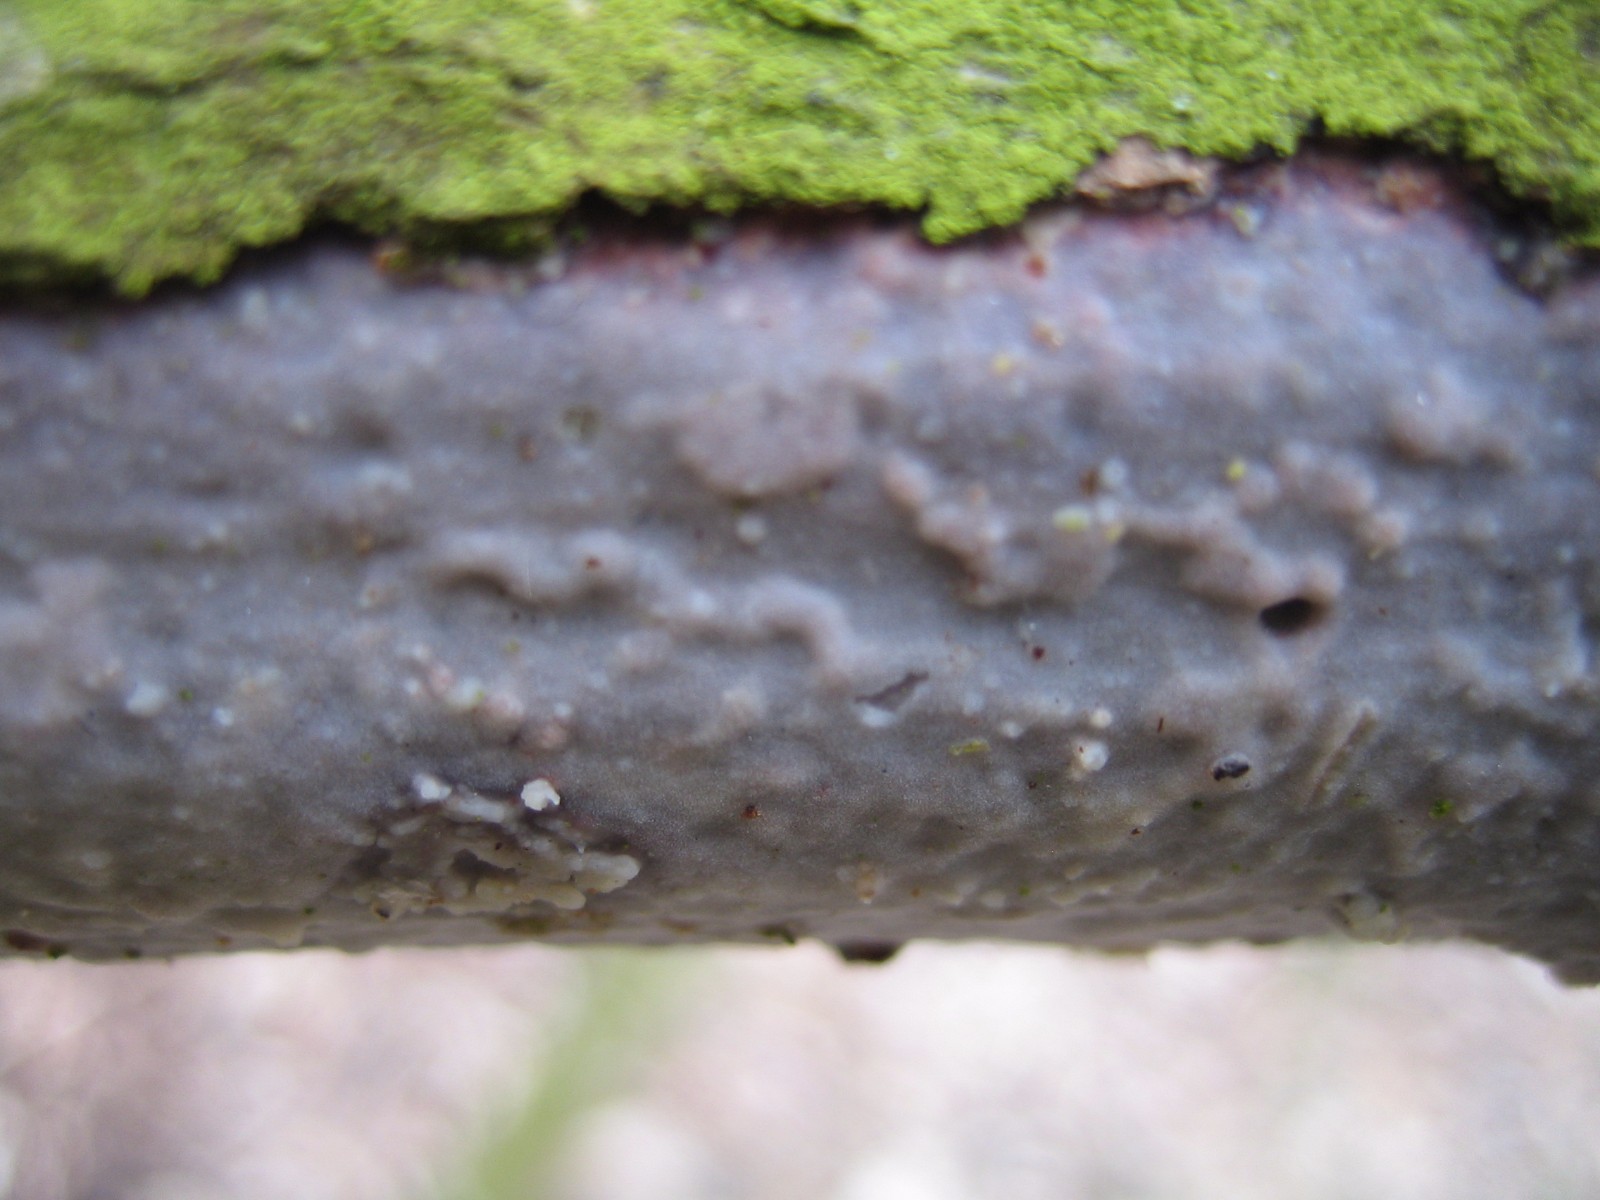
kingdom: Fungi
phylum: Basidiomycota
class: Agaricomycetes
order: Russulales
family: Peniophoraceae
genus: Peniophora
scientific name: Peniophora quercina
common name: ege-voksskind
